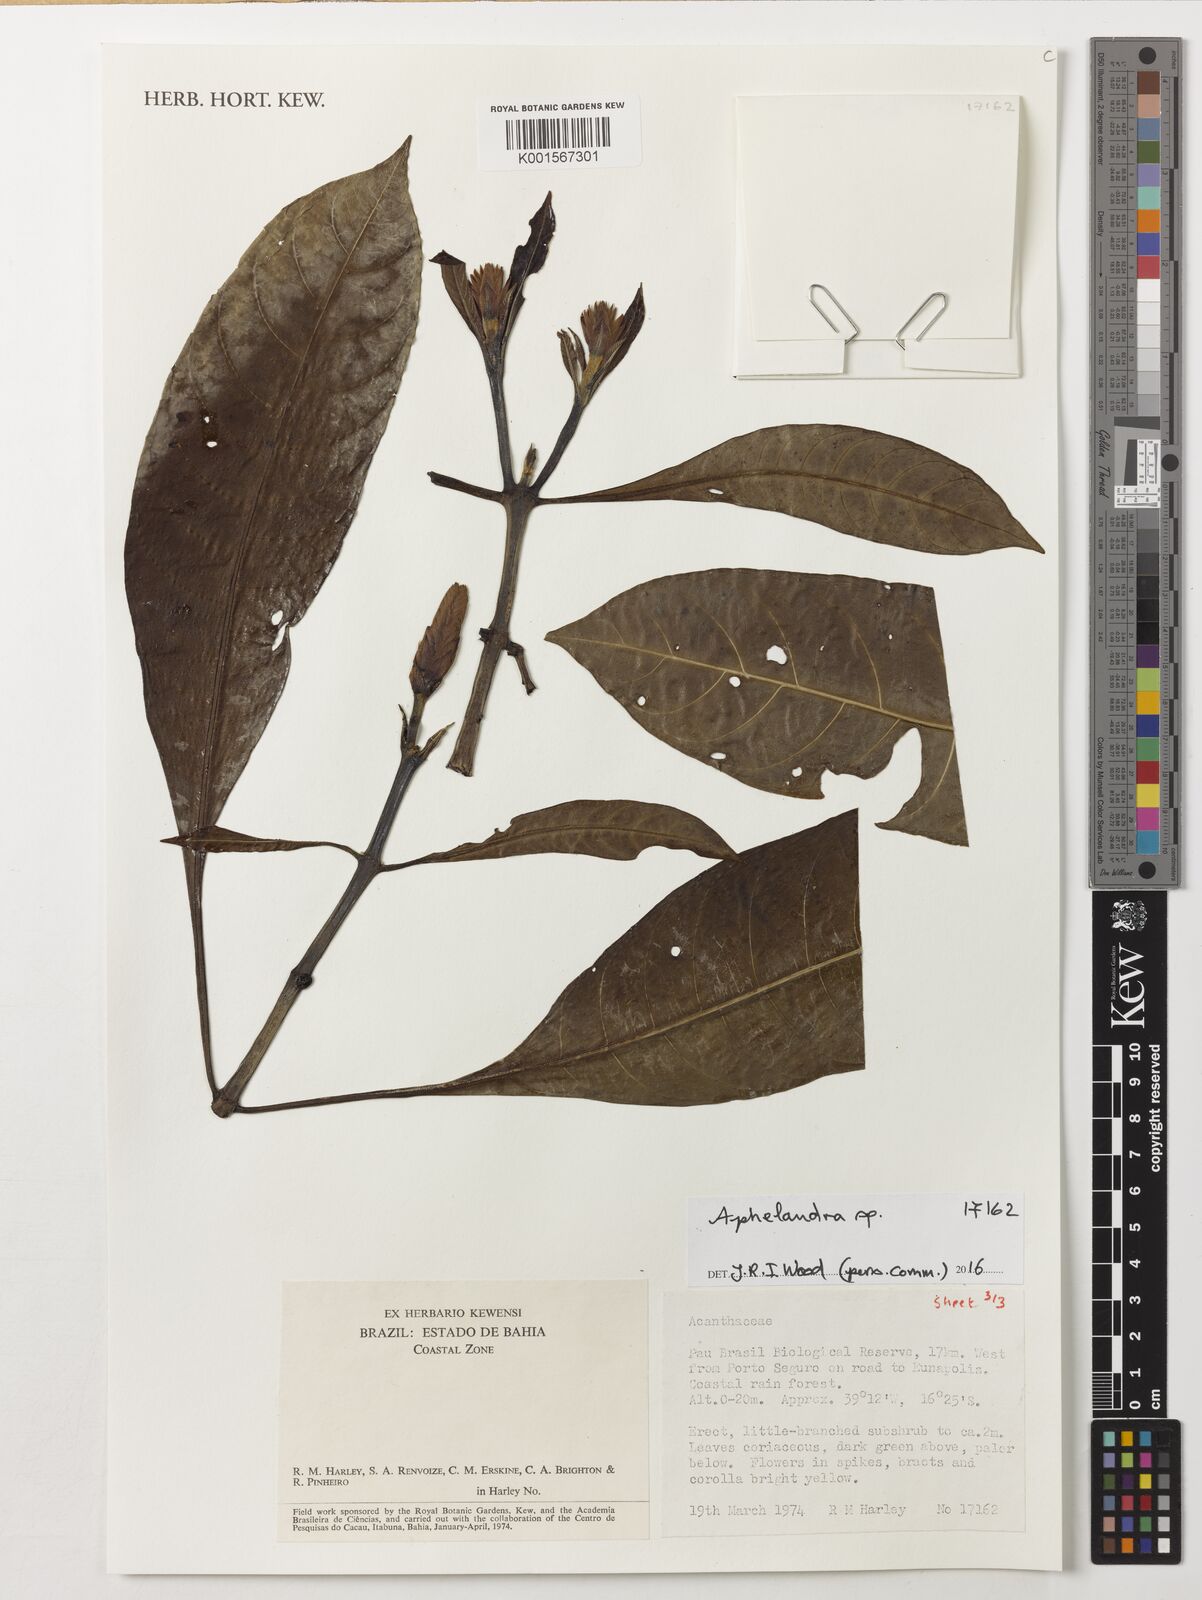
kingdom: Plantae
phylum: Tracheophyta
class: Magnoliopsida
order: Lamiales
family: Acanthaceae
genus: Aphelandra
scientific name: Aphelandra harleyi
